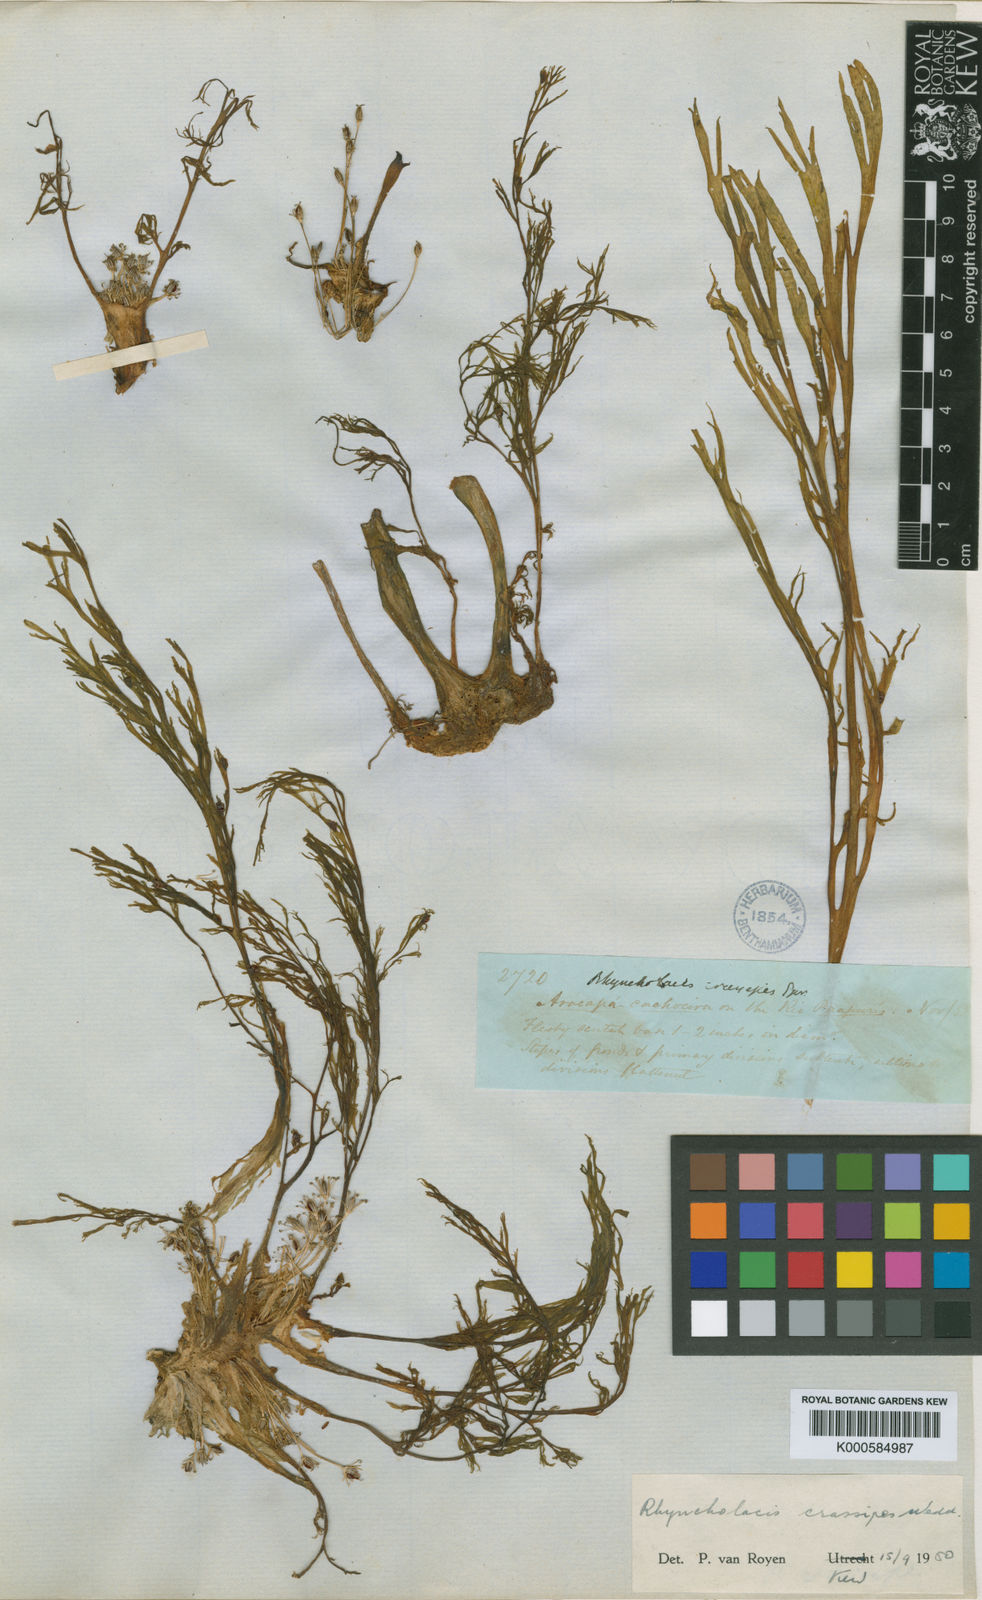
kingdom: Plantae
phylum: Tracheophyta
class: Magnoliopsida
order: Malpighiales
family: Podostemaceae
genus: Rhyncholacis
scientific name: Rhyncholacis
